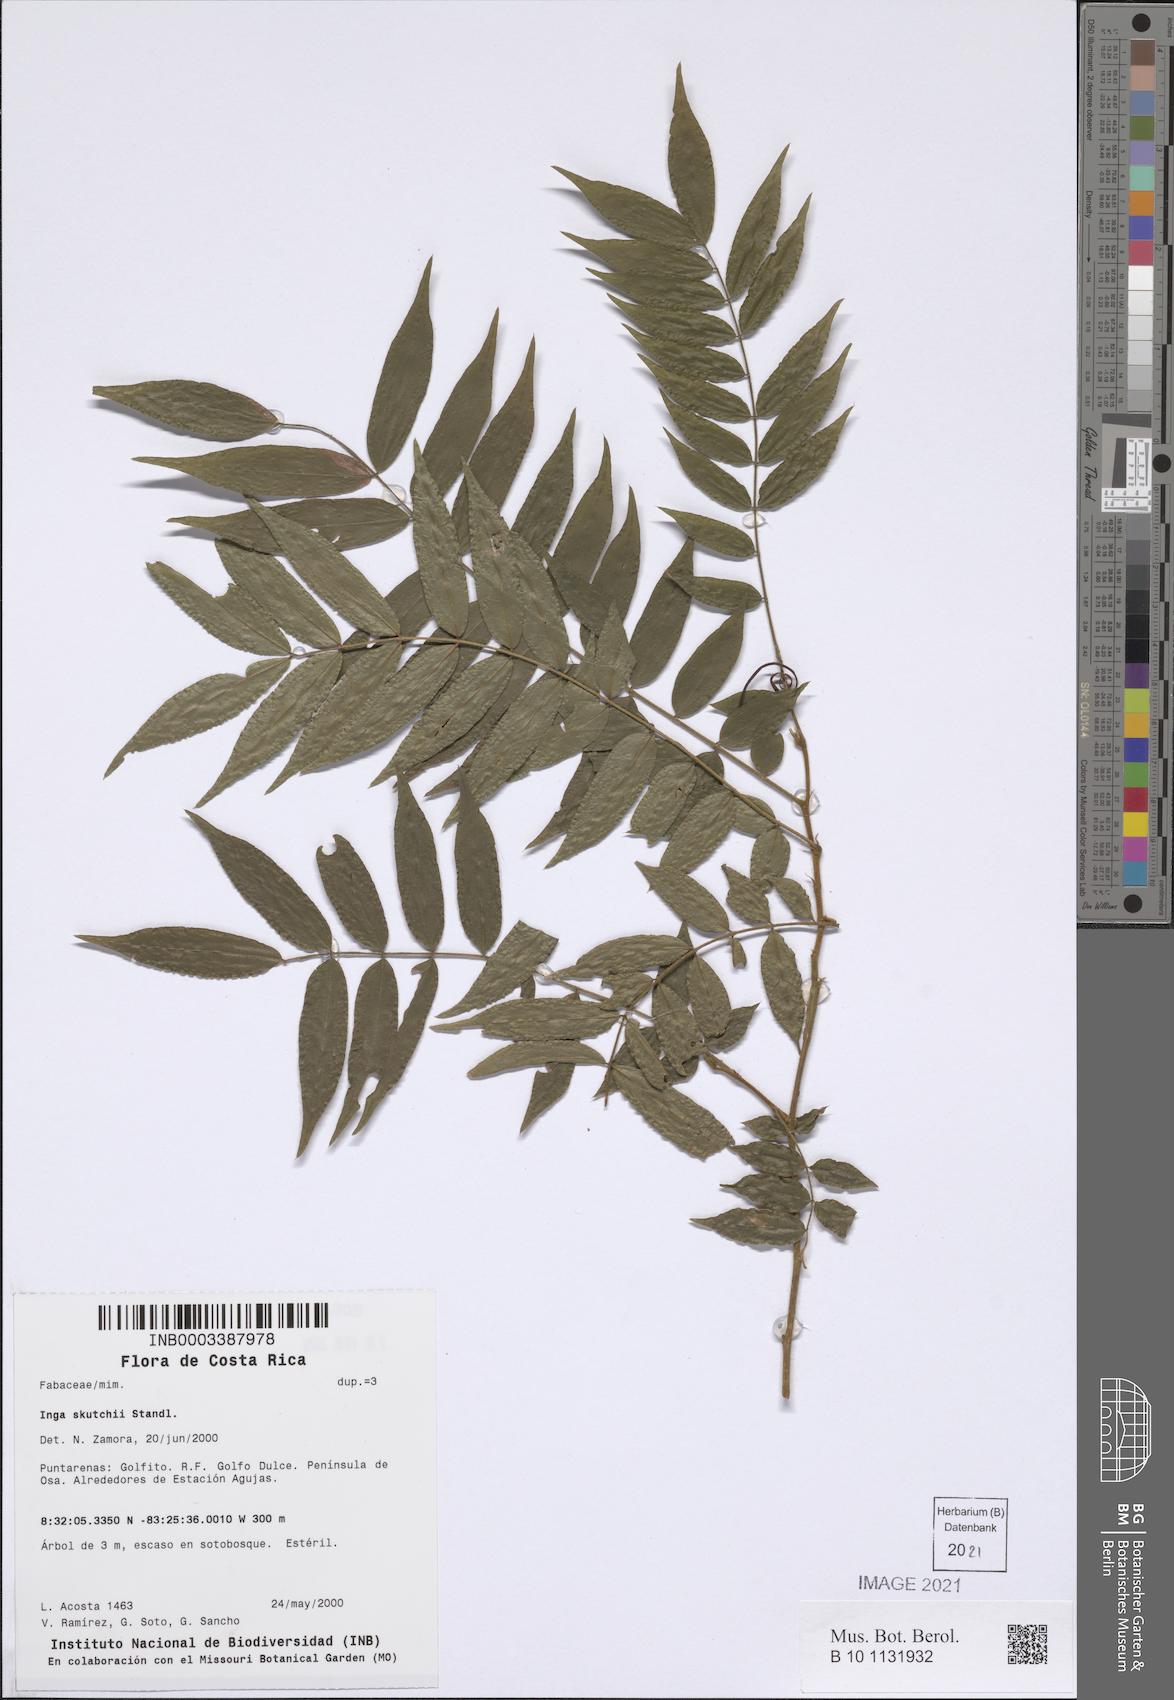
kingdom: Plantae
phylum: Tracheophyta
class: Magnoliopsida
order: Fabales
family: Fabaceae
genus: Inga
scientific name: Inga skutchii
